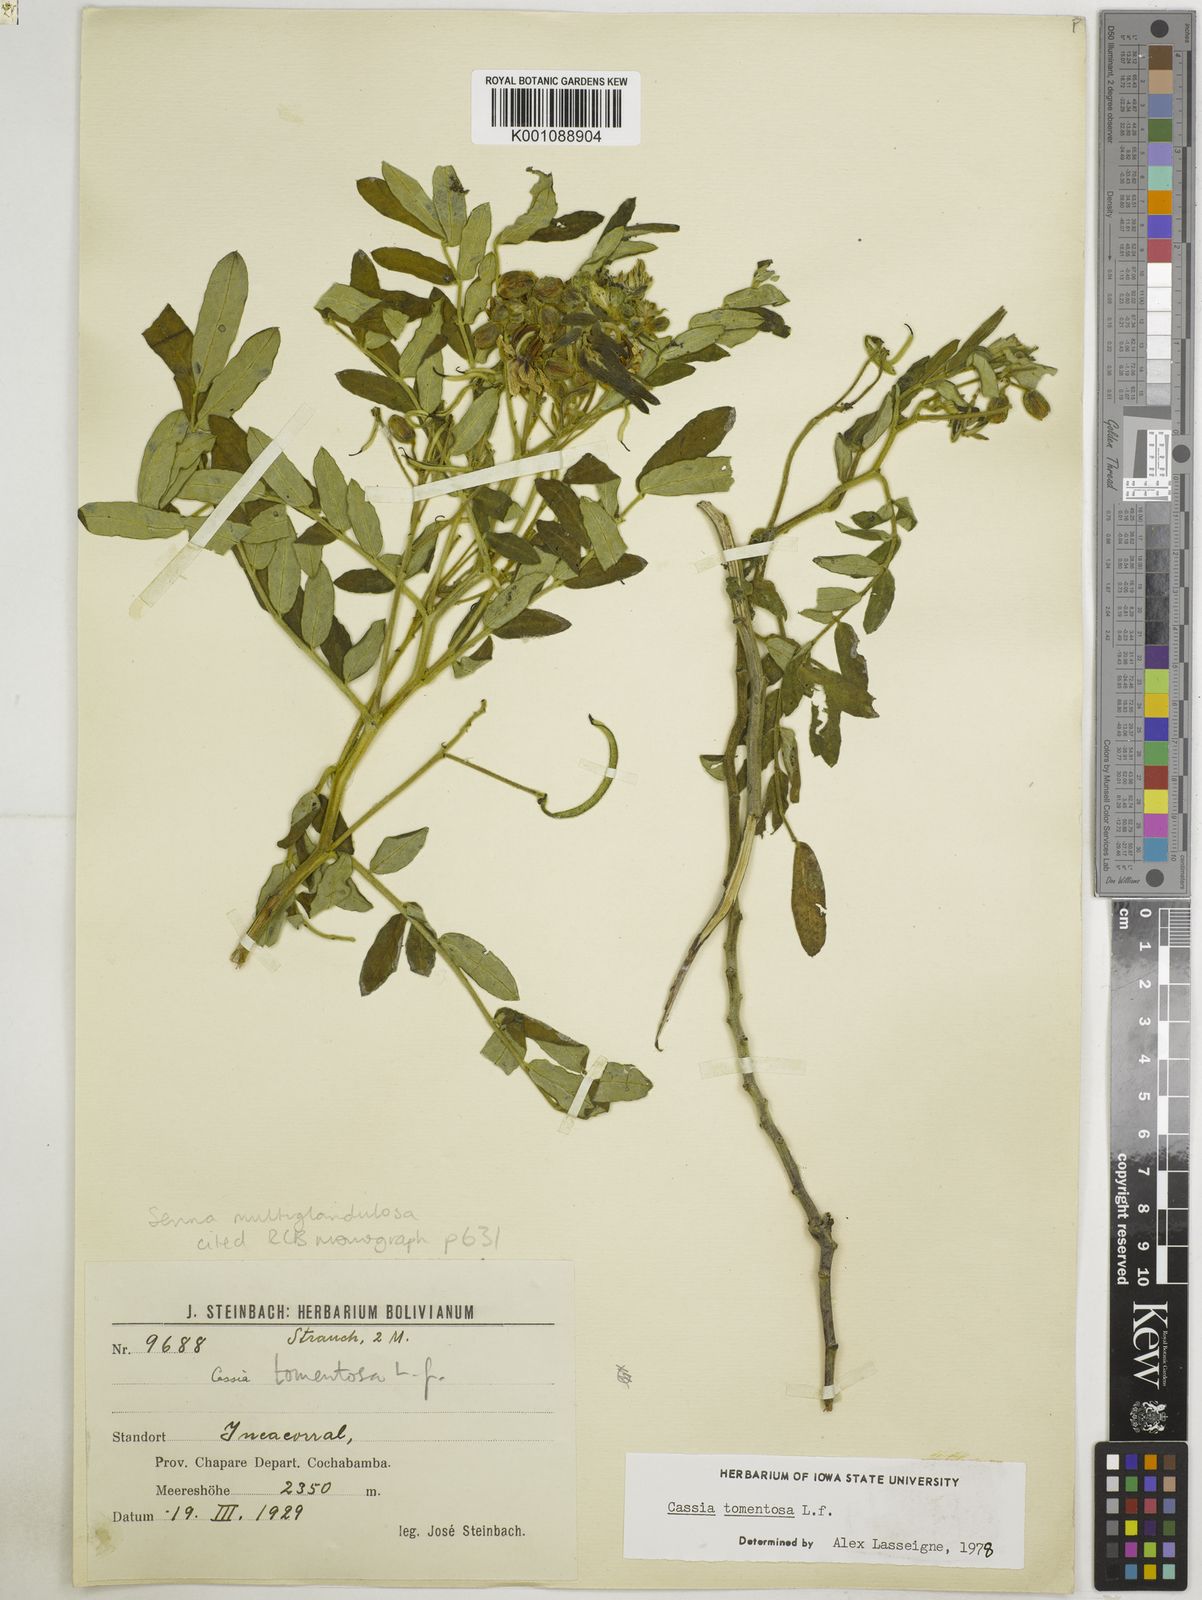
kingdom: Plantae
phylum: Tracheophyta
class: Magnoliopsida
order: Fabales
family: Fabaceae
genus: Senna
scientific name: Senna multiglandulosa
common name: Glandular senna
